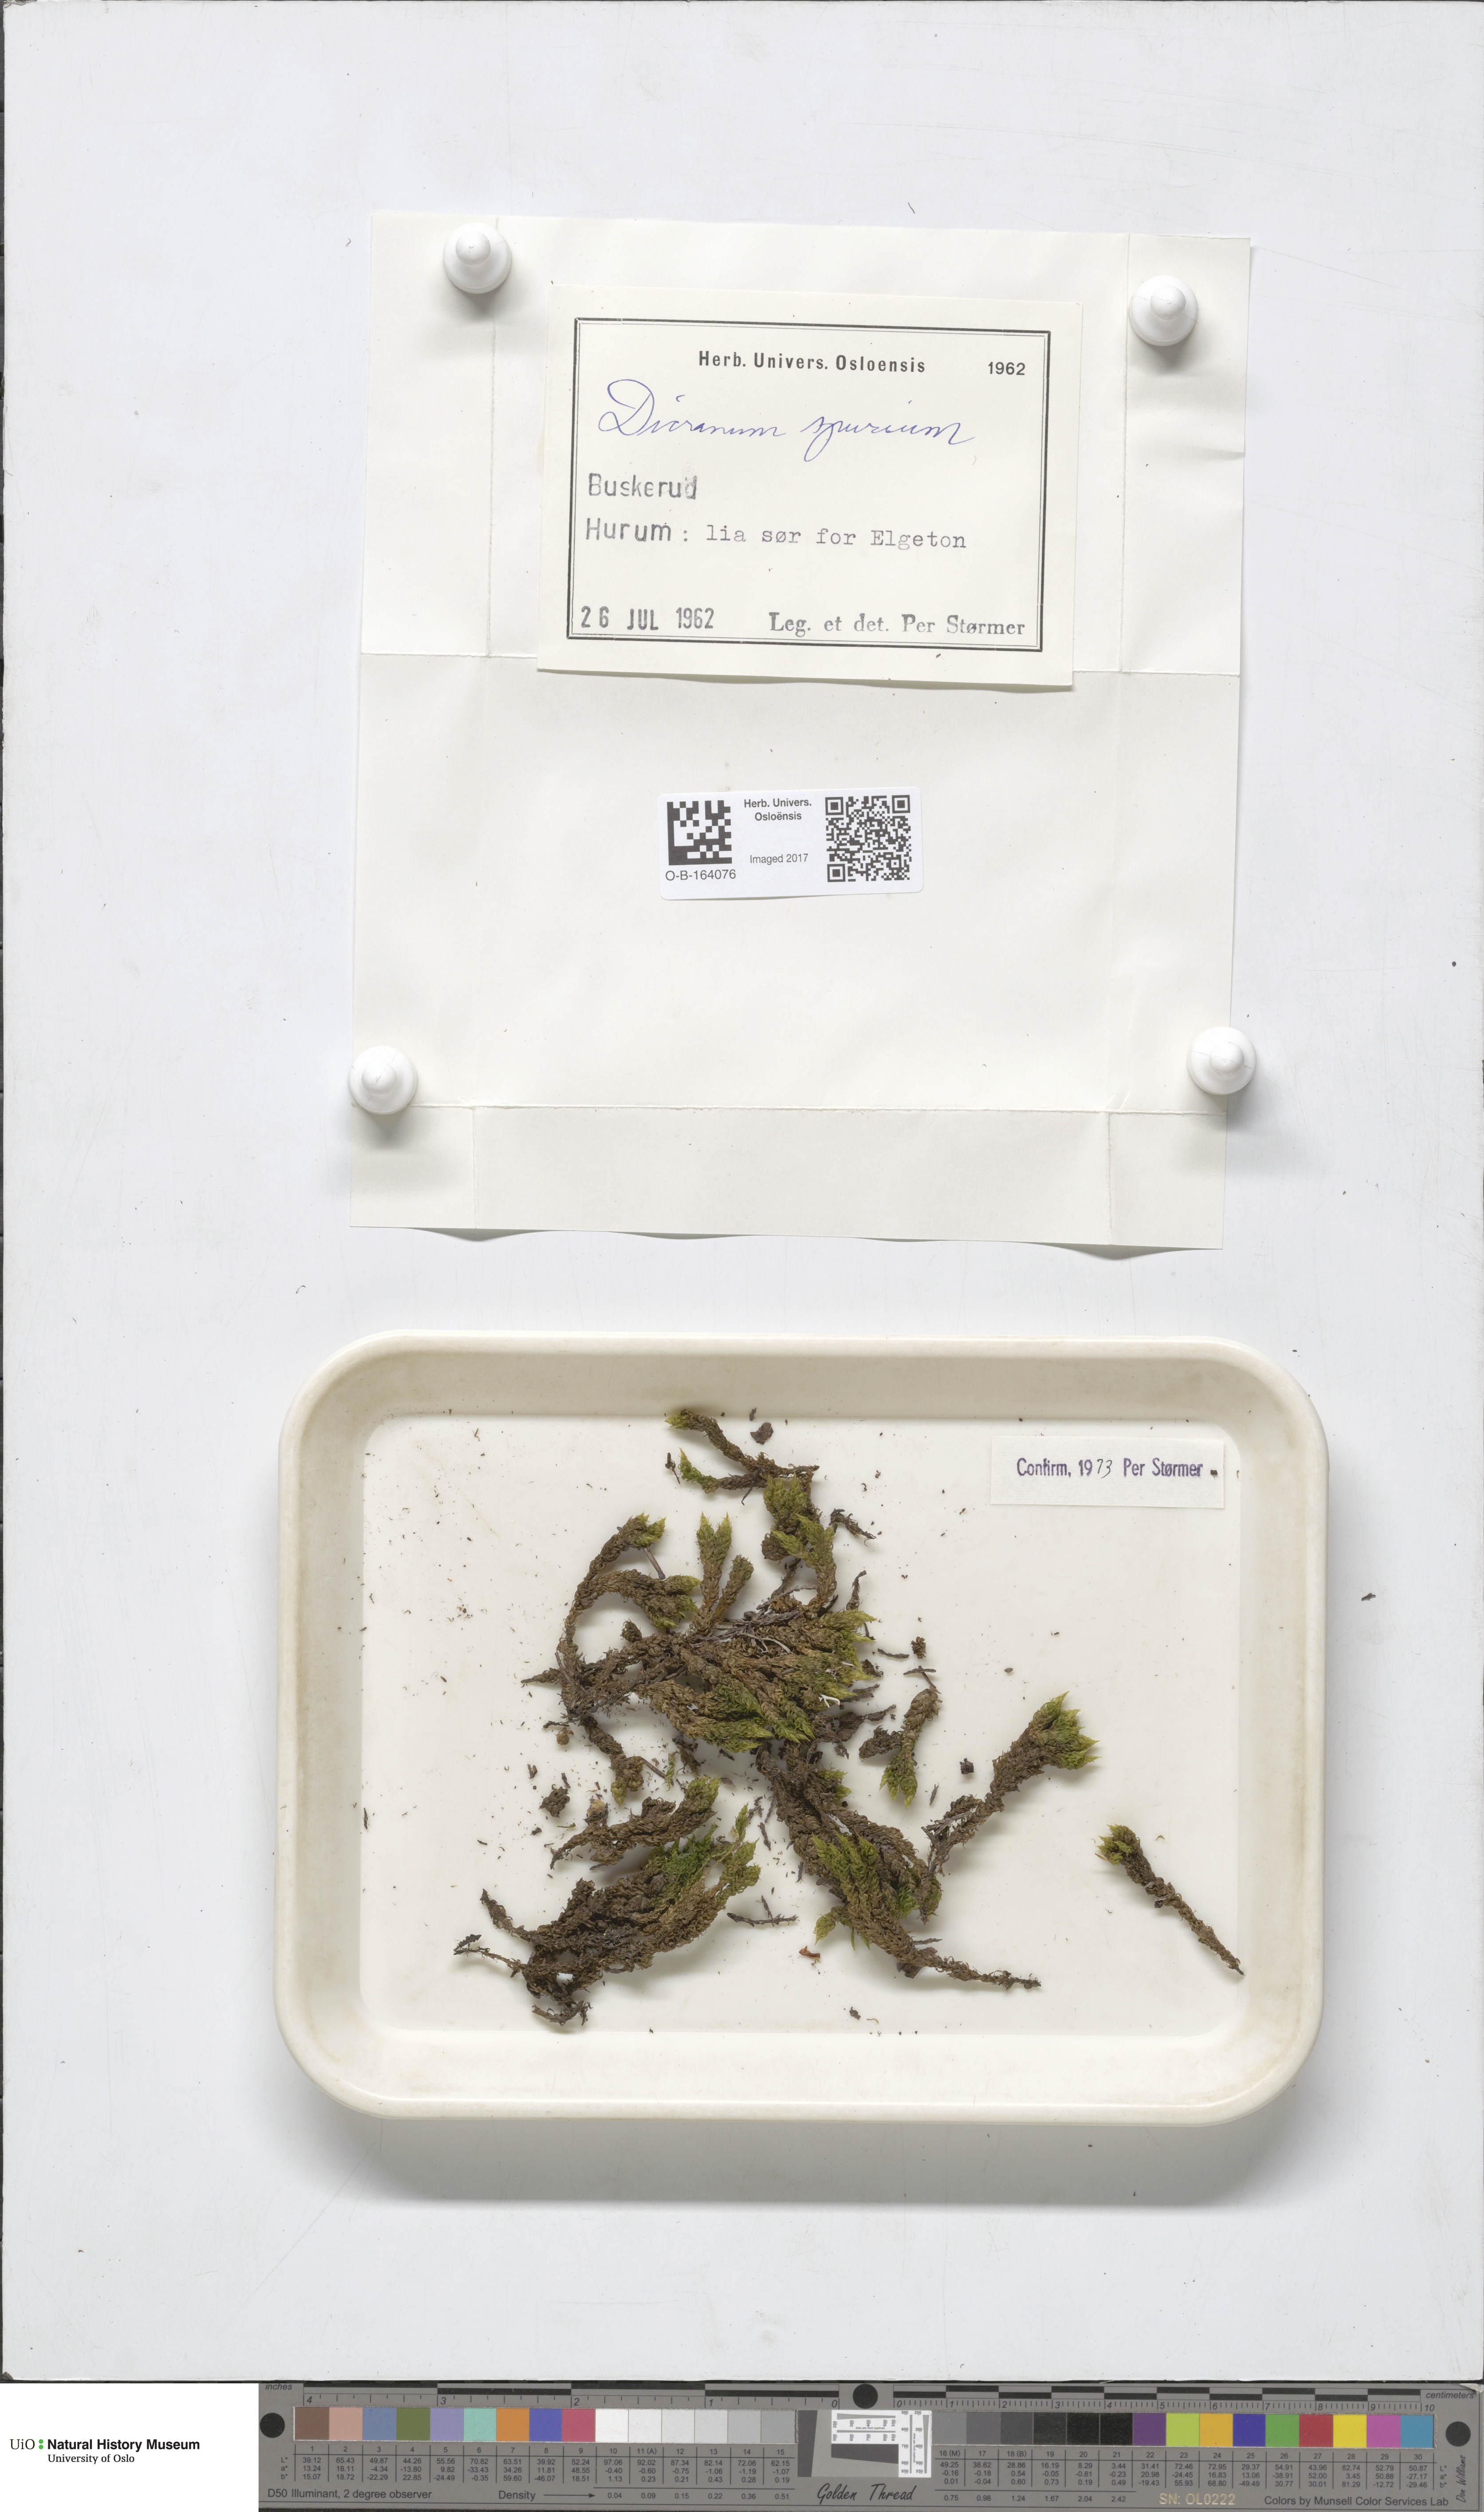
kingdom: Plantae
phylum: Bryophyta
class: Bryopsida
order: Dicranales
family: Dicranaceae
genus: Dicranum
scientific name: Dicranum spurium
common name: Spurred broom moss
